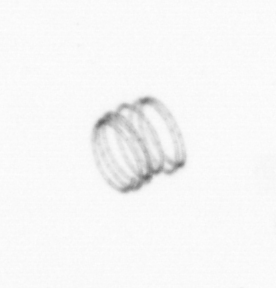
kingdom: Chromista
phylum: Ochrophyta
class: Bacillariophyceae
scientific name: Bacillariophyceae
